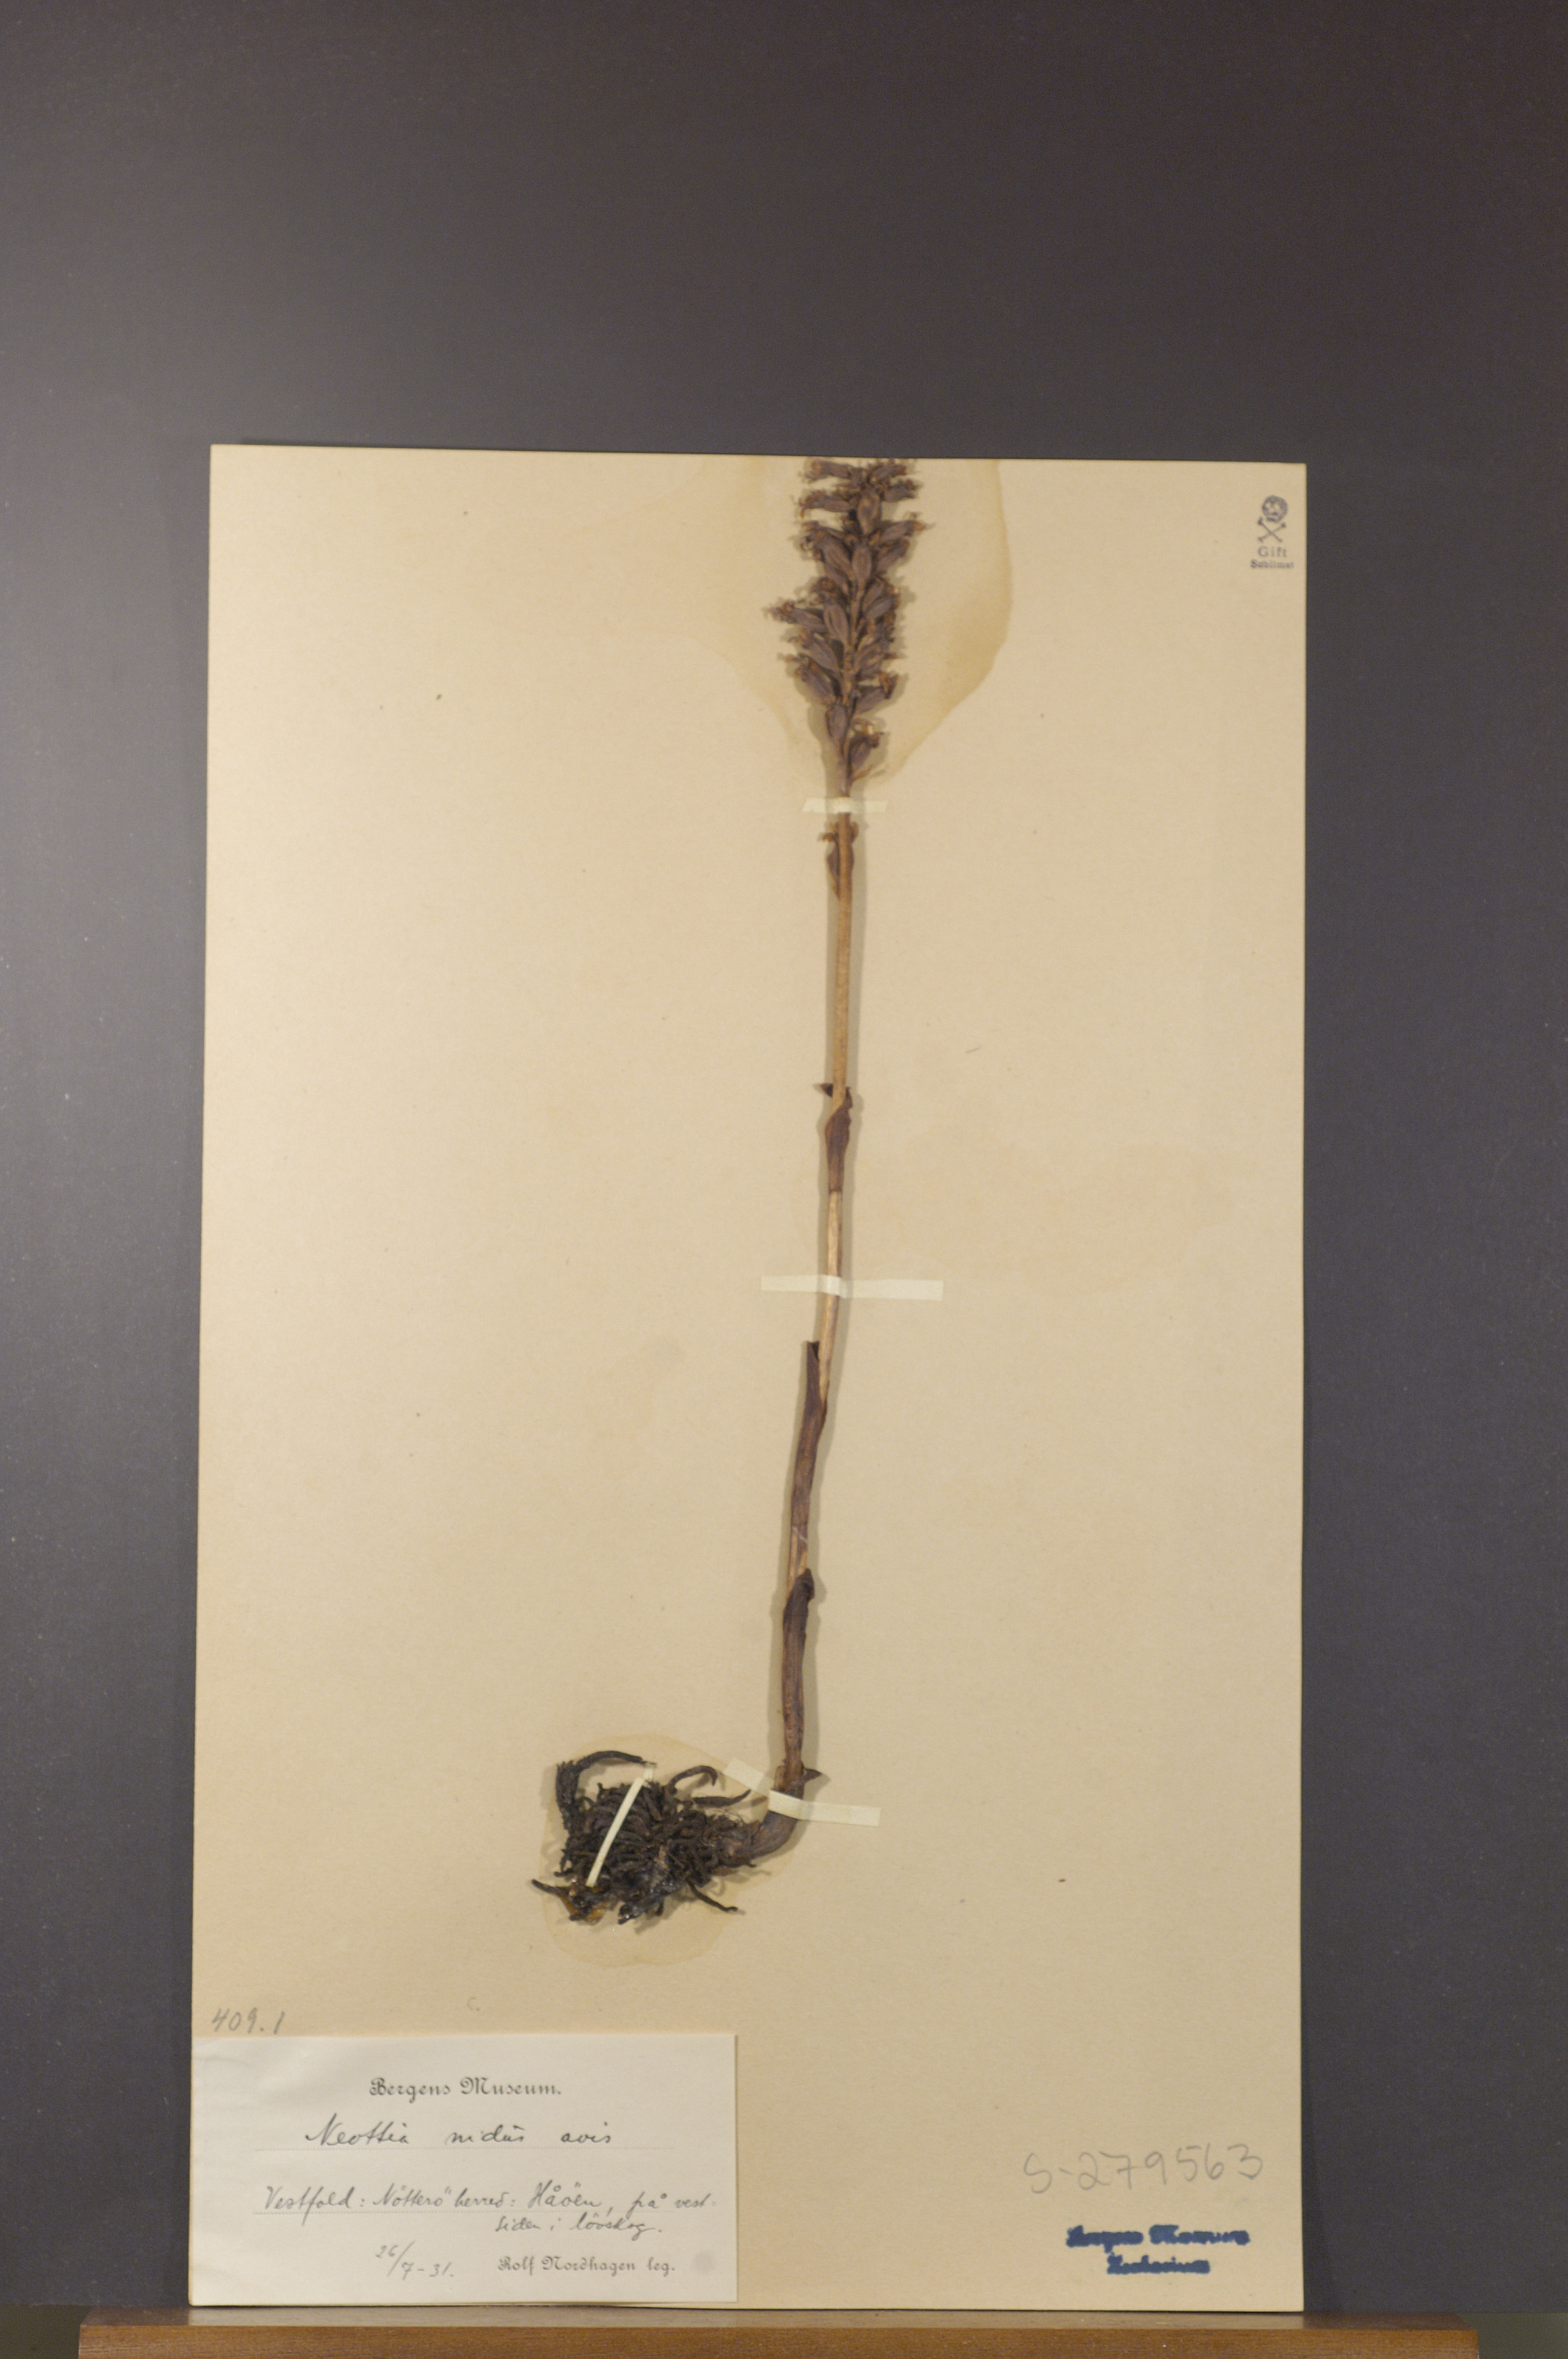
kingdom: Plantae
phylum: Tracheophyta
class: Liliopsida
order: Asparagales
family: Orchidaceae
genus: Neottia
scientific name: Neottia nidus-avis
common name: Bird's-nest orchid
